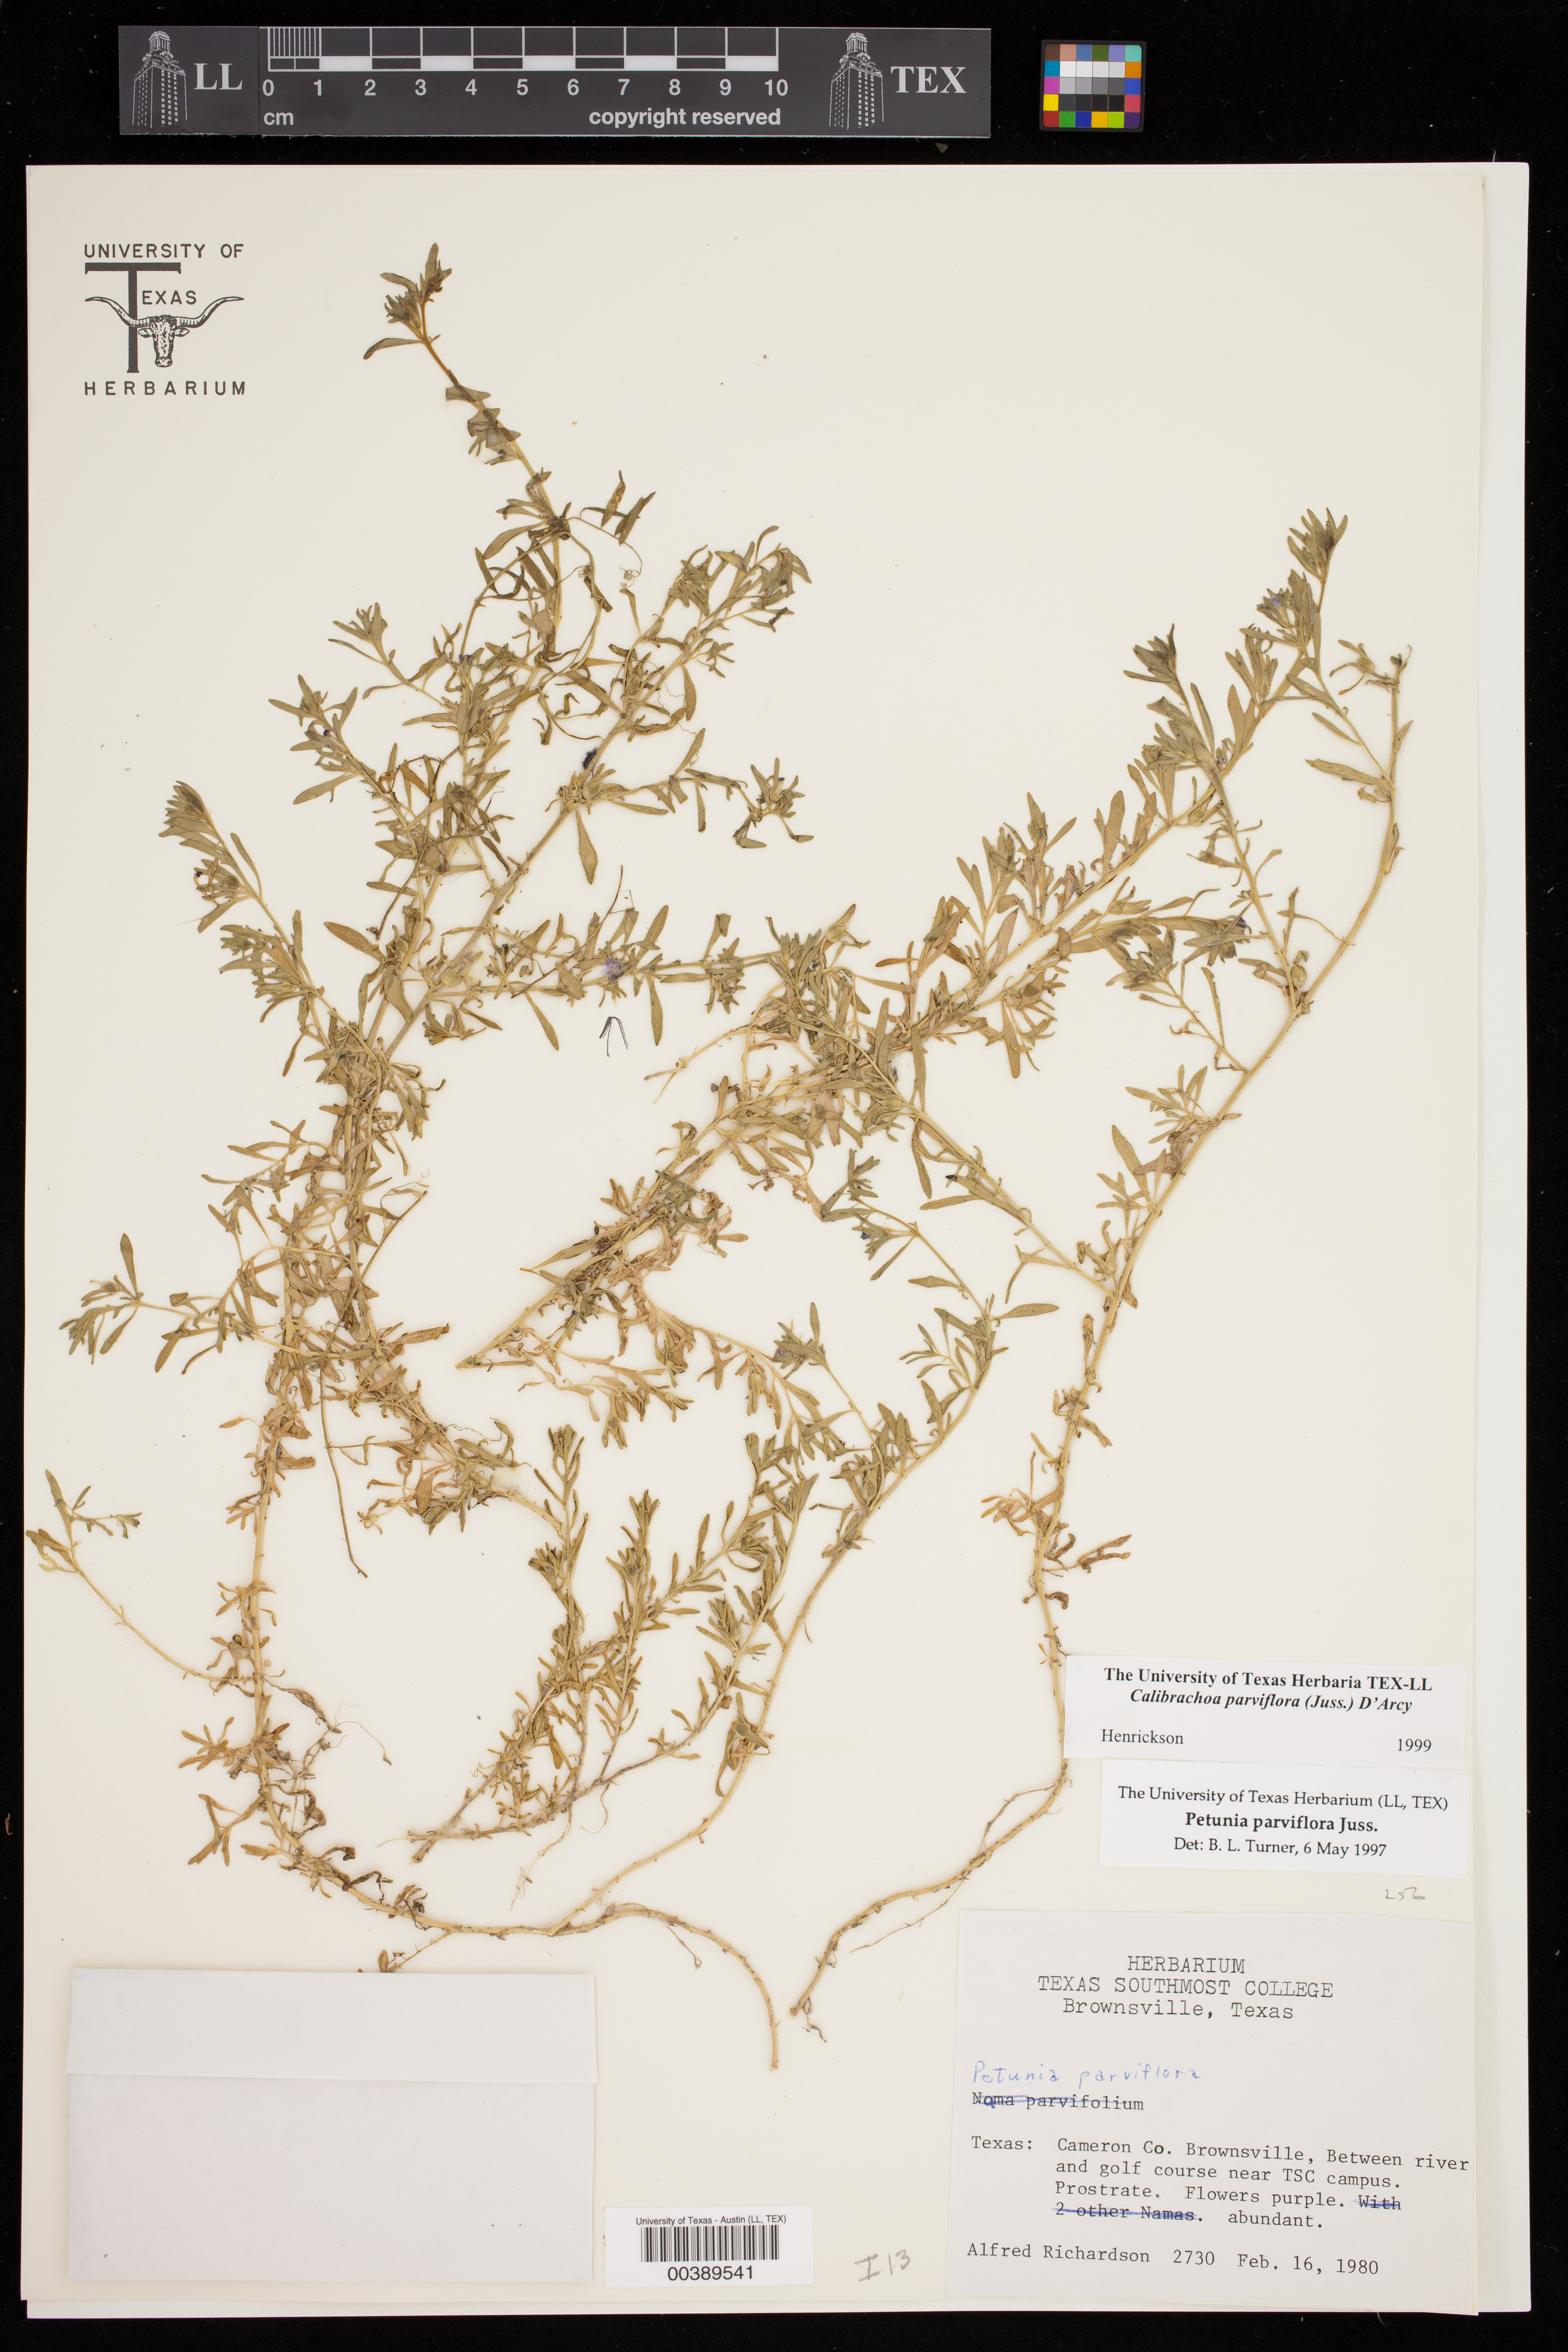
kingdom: Plantae
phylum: Tracheophyta
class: Magnoliopsida
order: Solanales
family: Solanaceae
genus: Calibrachoa
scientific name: Calibrachoa parviflora
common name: Seaside petunia
